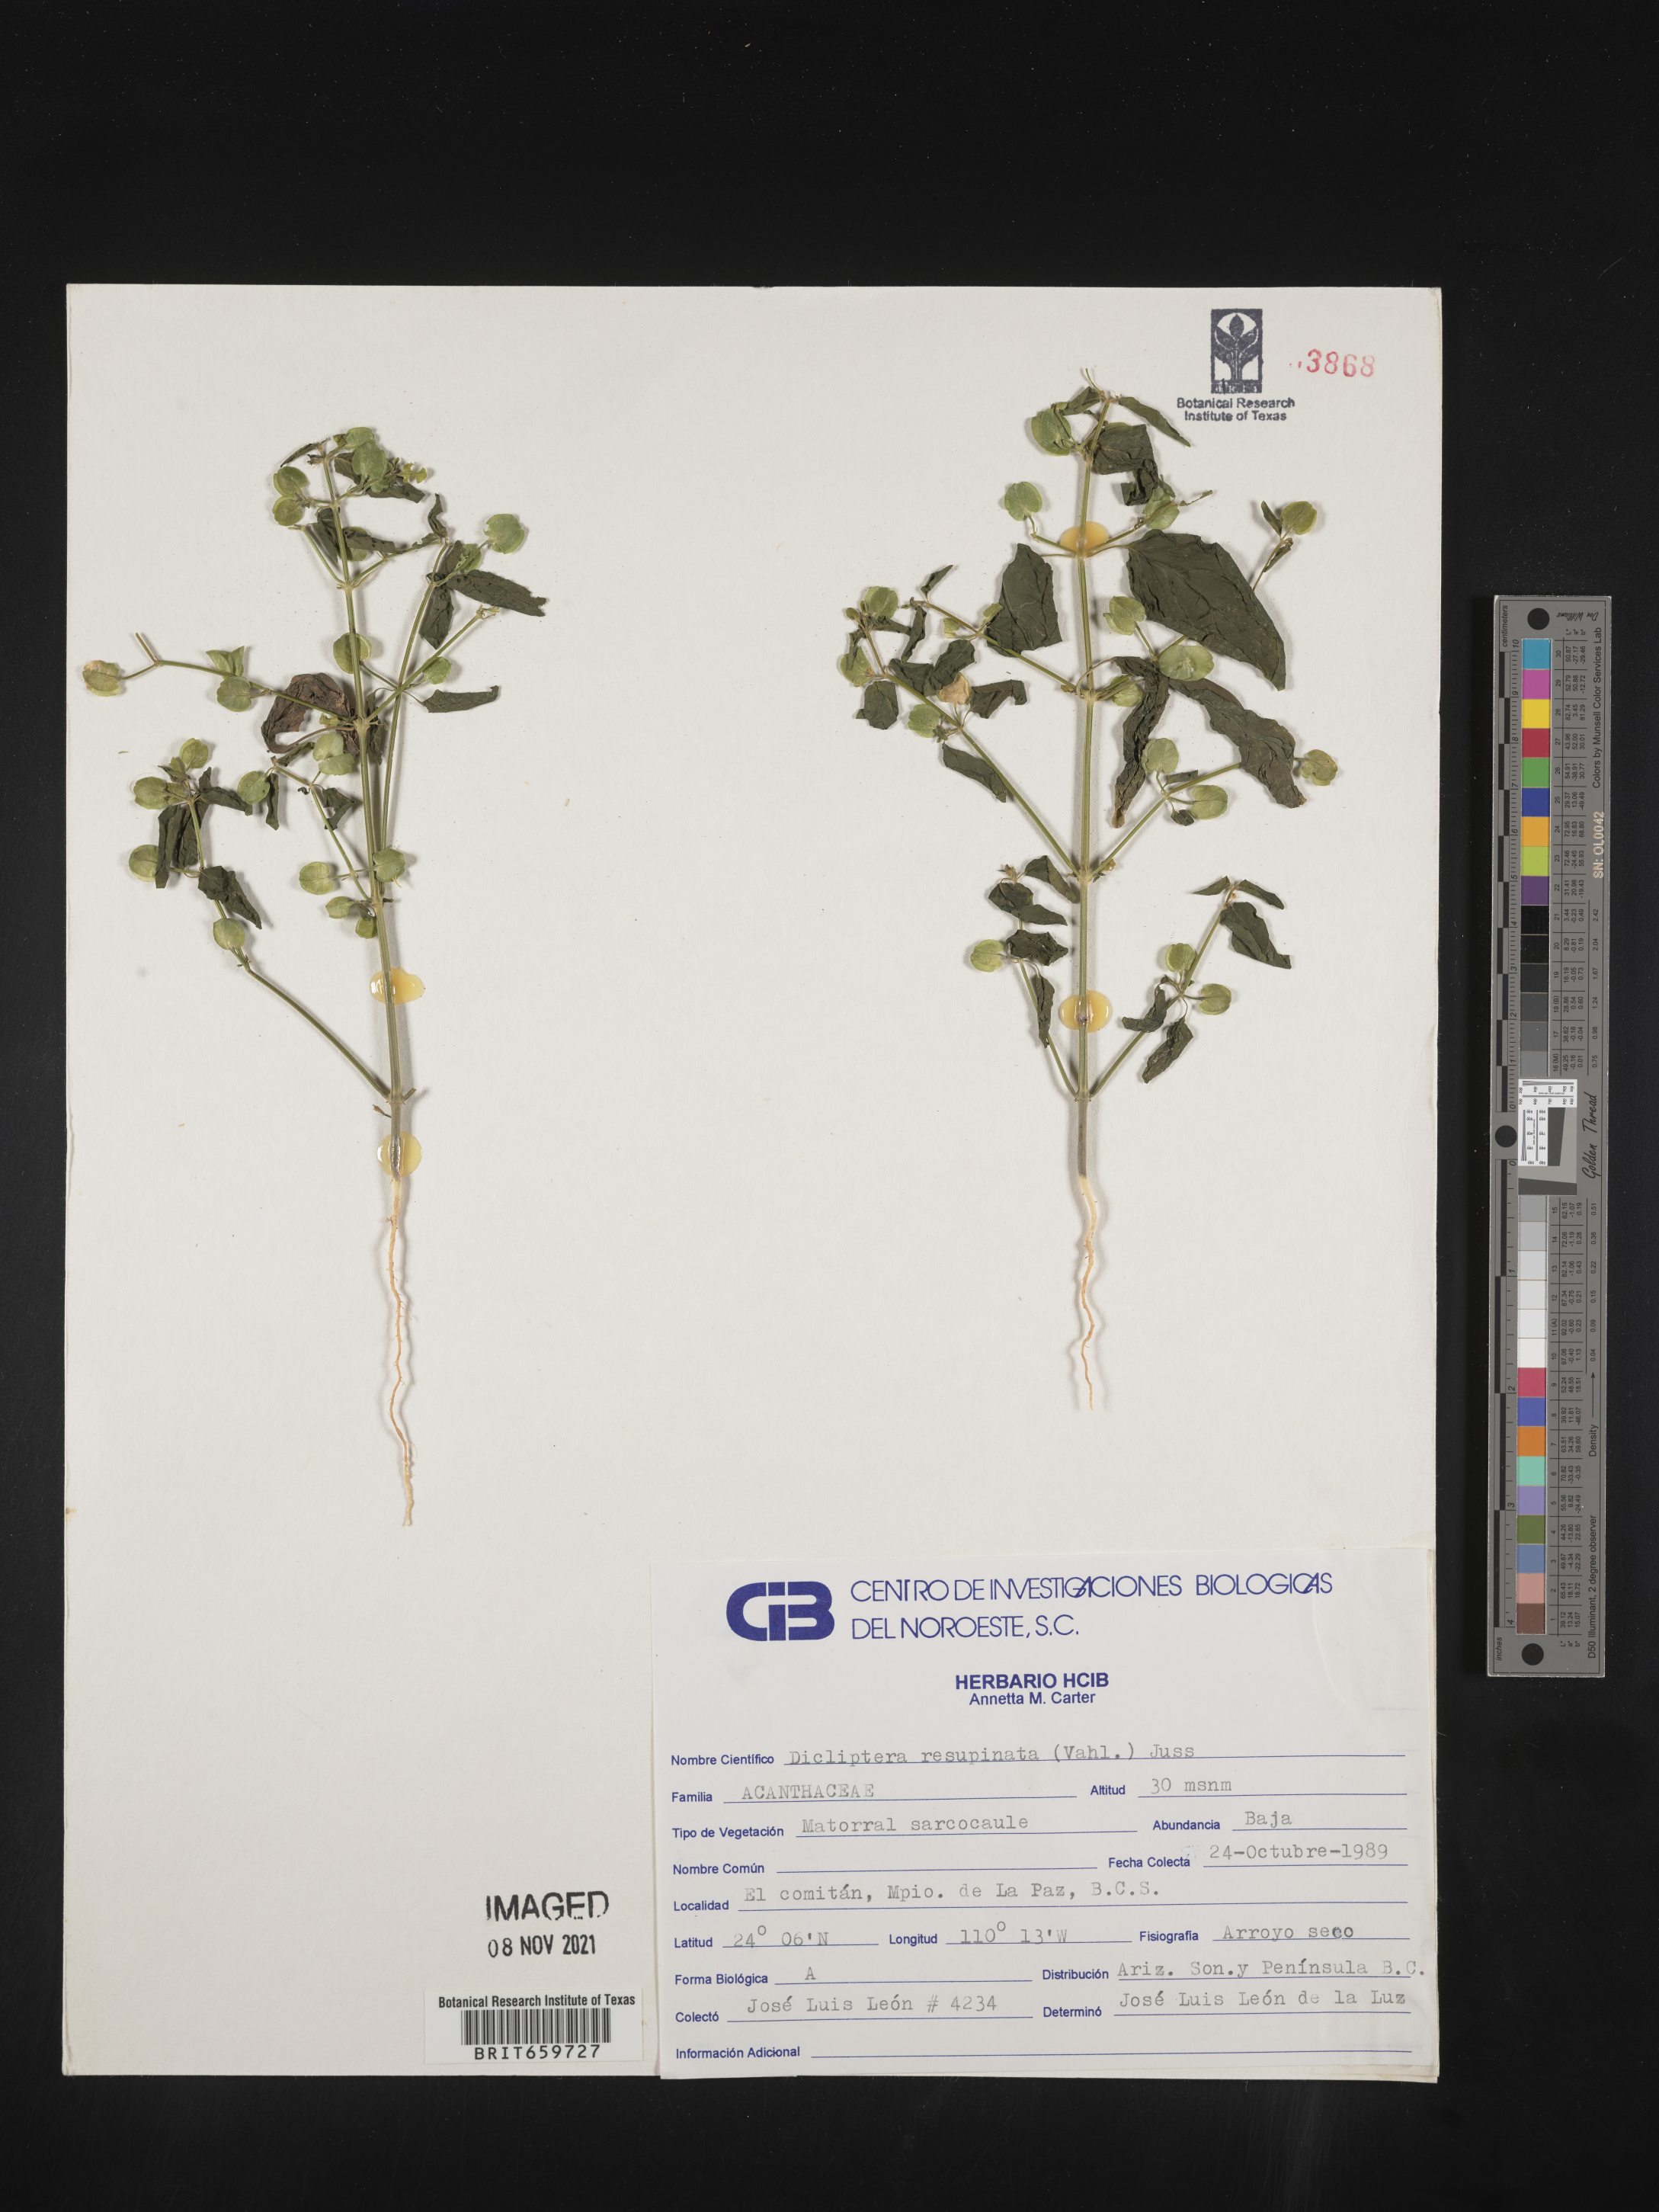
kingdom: Plantae
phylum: Tracheophyta
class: Magnoliopsida
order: Lamiales
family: Acanthaceae
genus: Dicliptera
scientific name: Dicliptera
